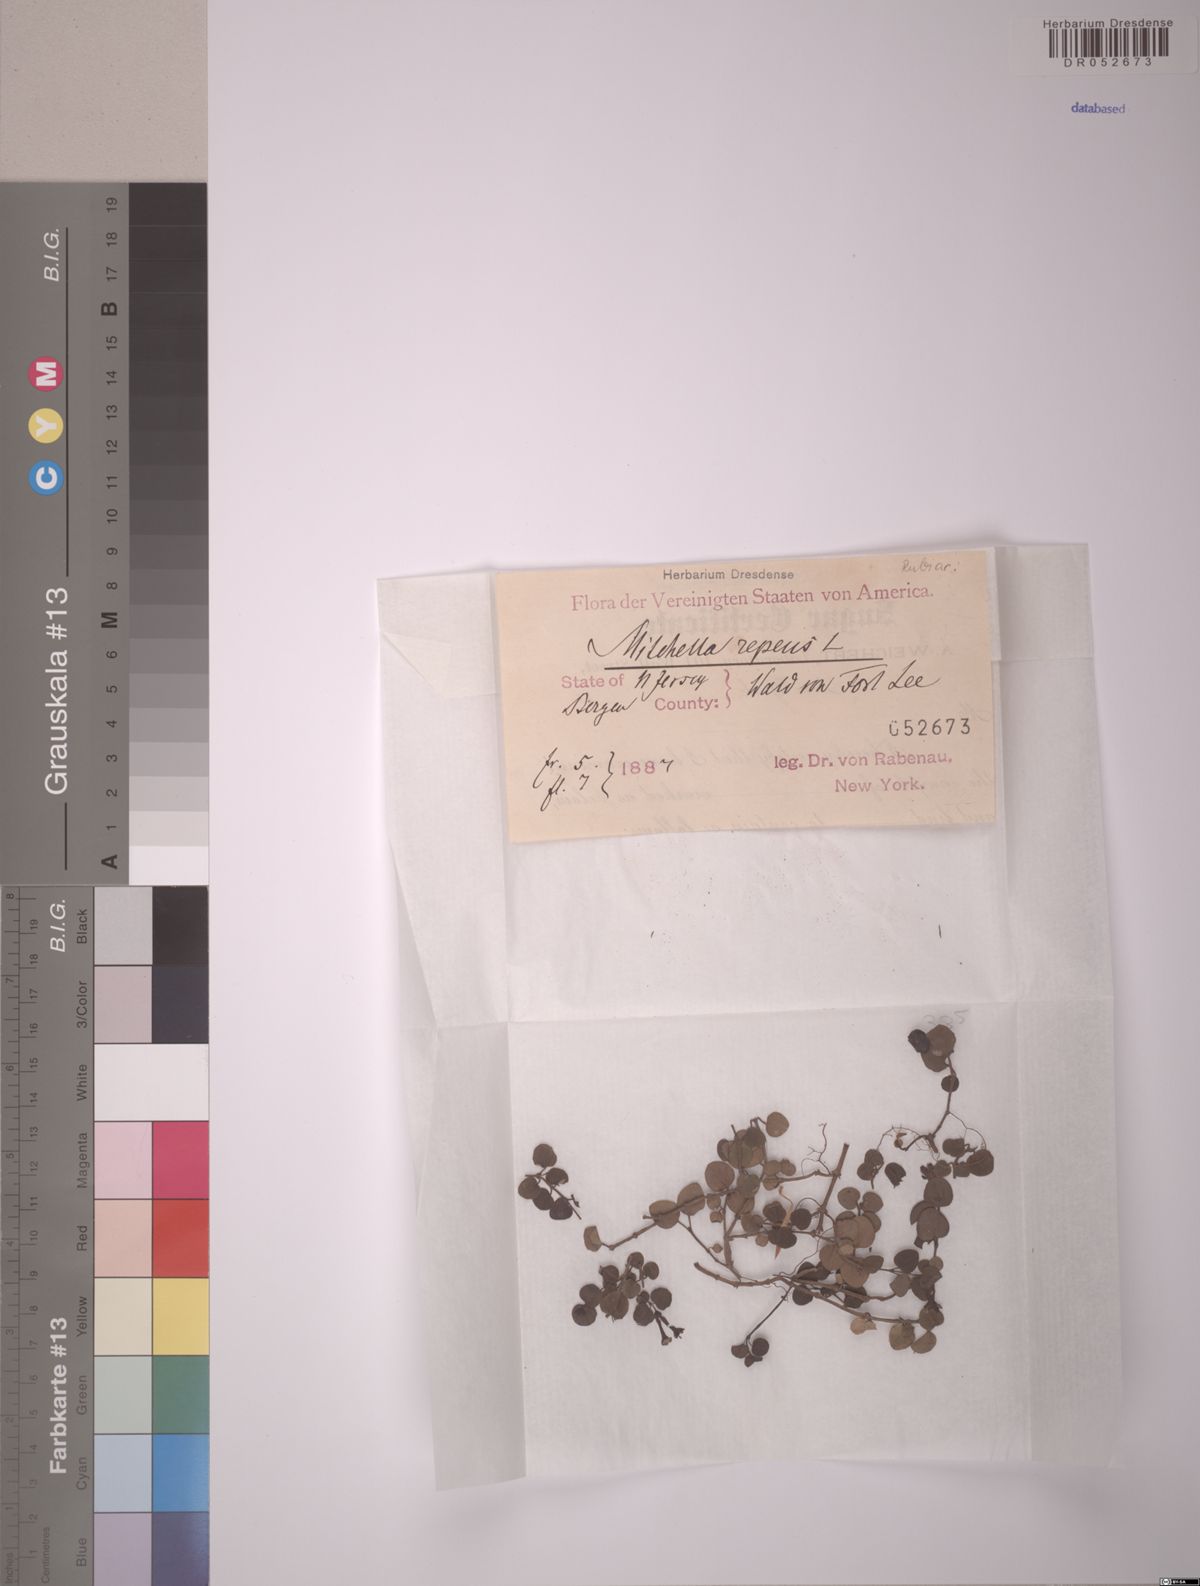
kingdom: Plantae
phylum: Tracheophyta
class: Magnoliopsida
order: Gentianales
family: Rubiaceae
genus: Mitchella
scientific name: Mitchella repens
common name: Partridge-berry
